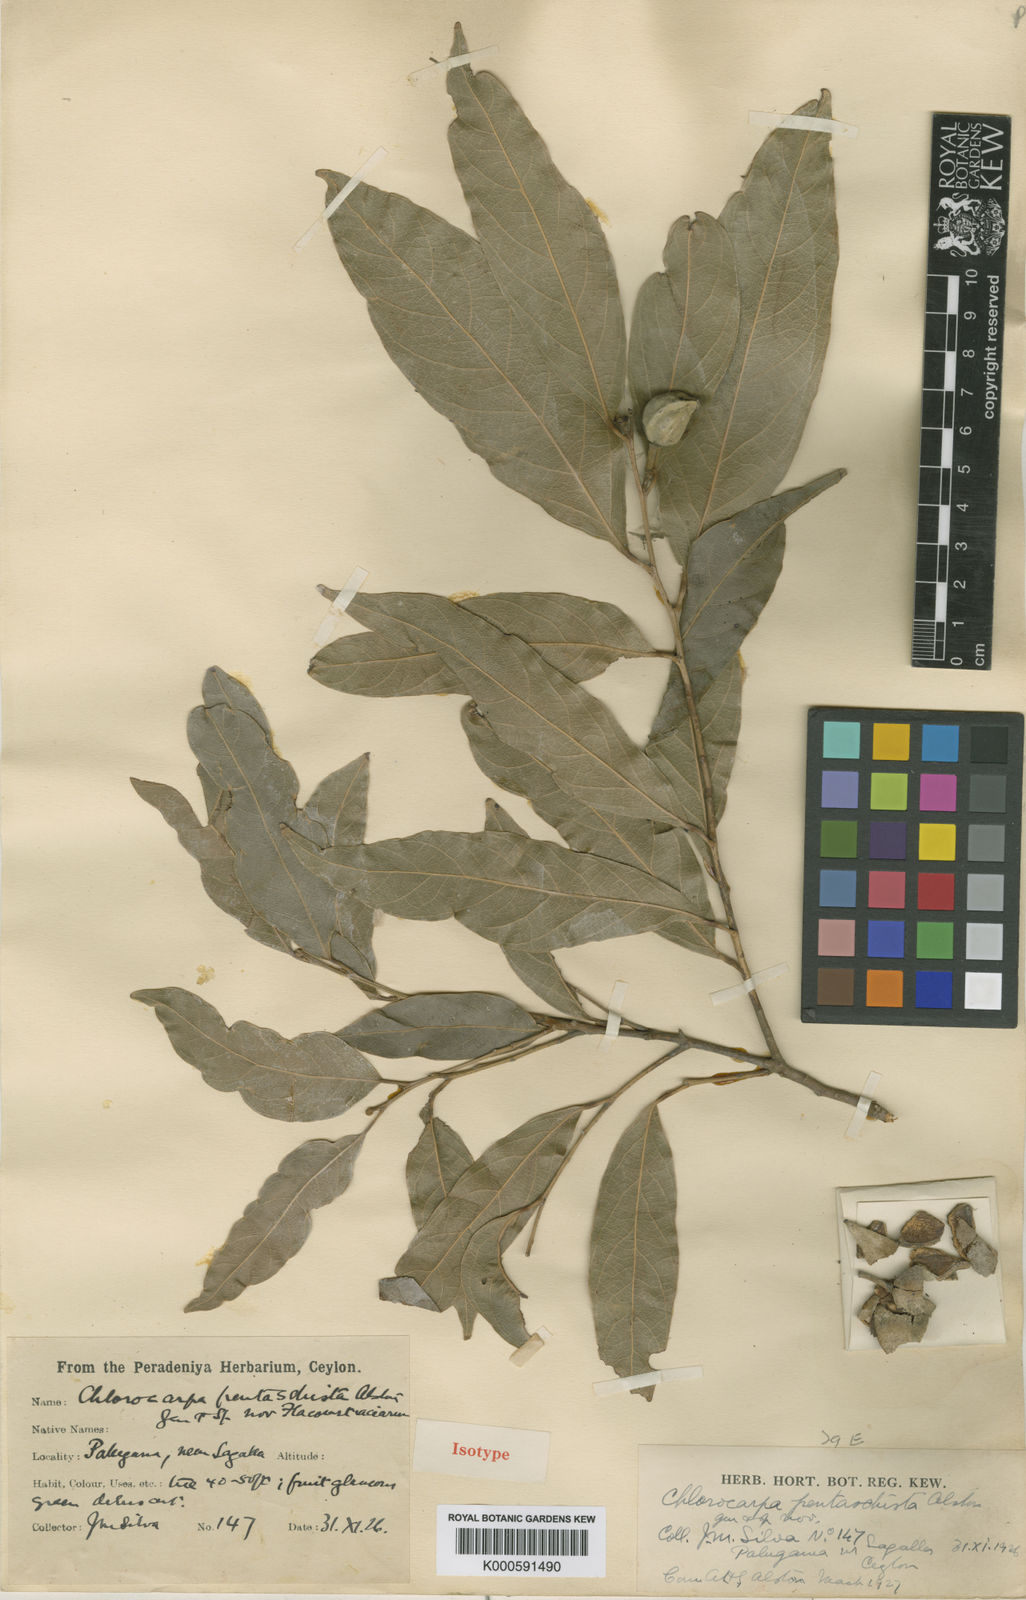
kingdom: Plantae
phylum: Tracheophyta
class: Magnoliopsida
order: Malpighiales
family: Achariaceae
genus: Chlorocarpa
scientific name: Chlorocarpa pentaschista
